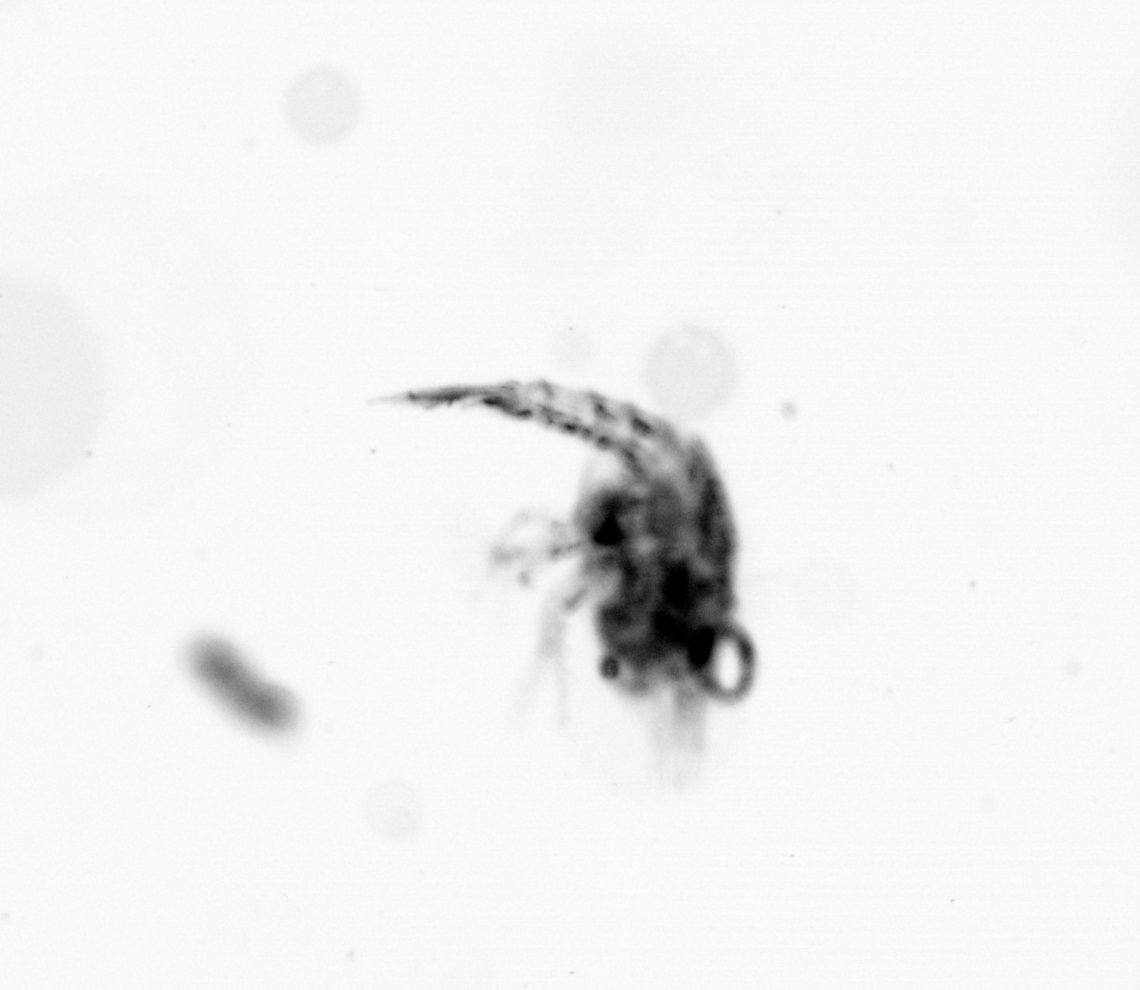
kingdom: Animalia
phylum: Arthropoda
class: Copepoda
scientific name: Copepoda
